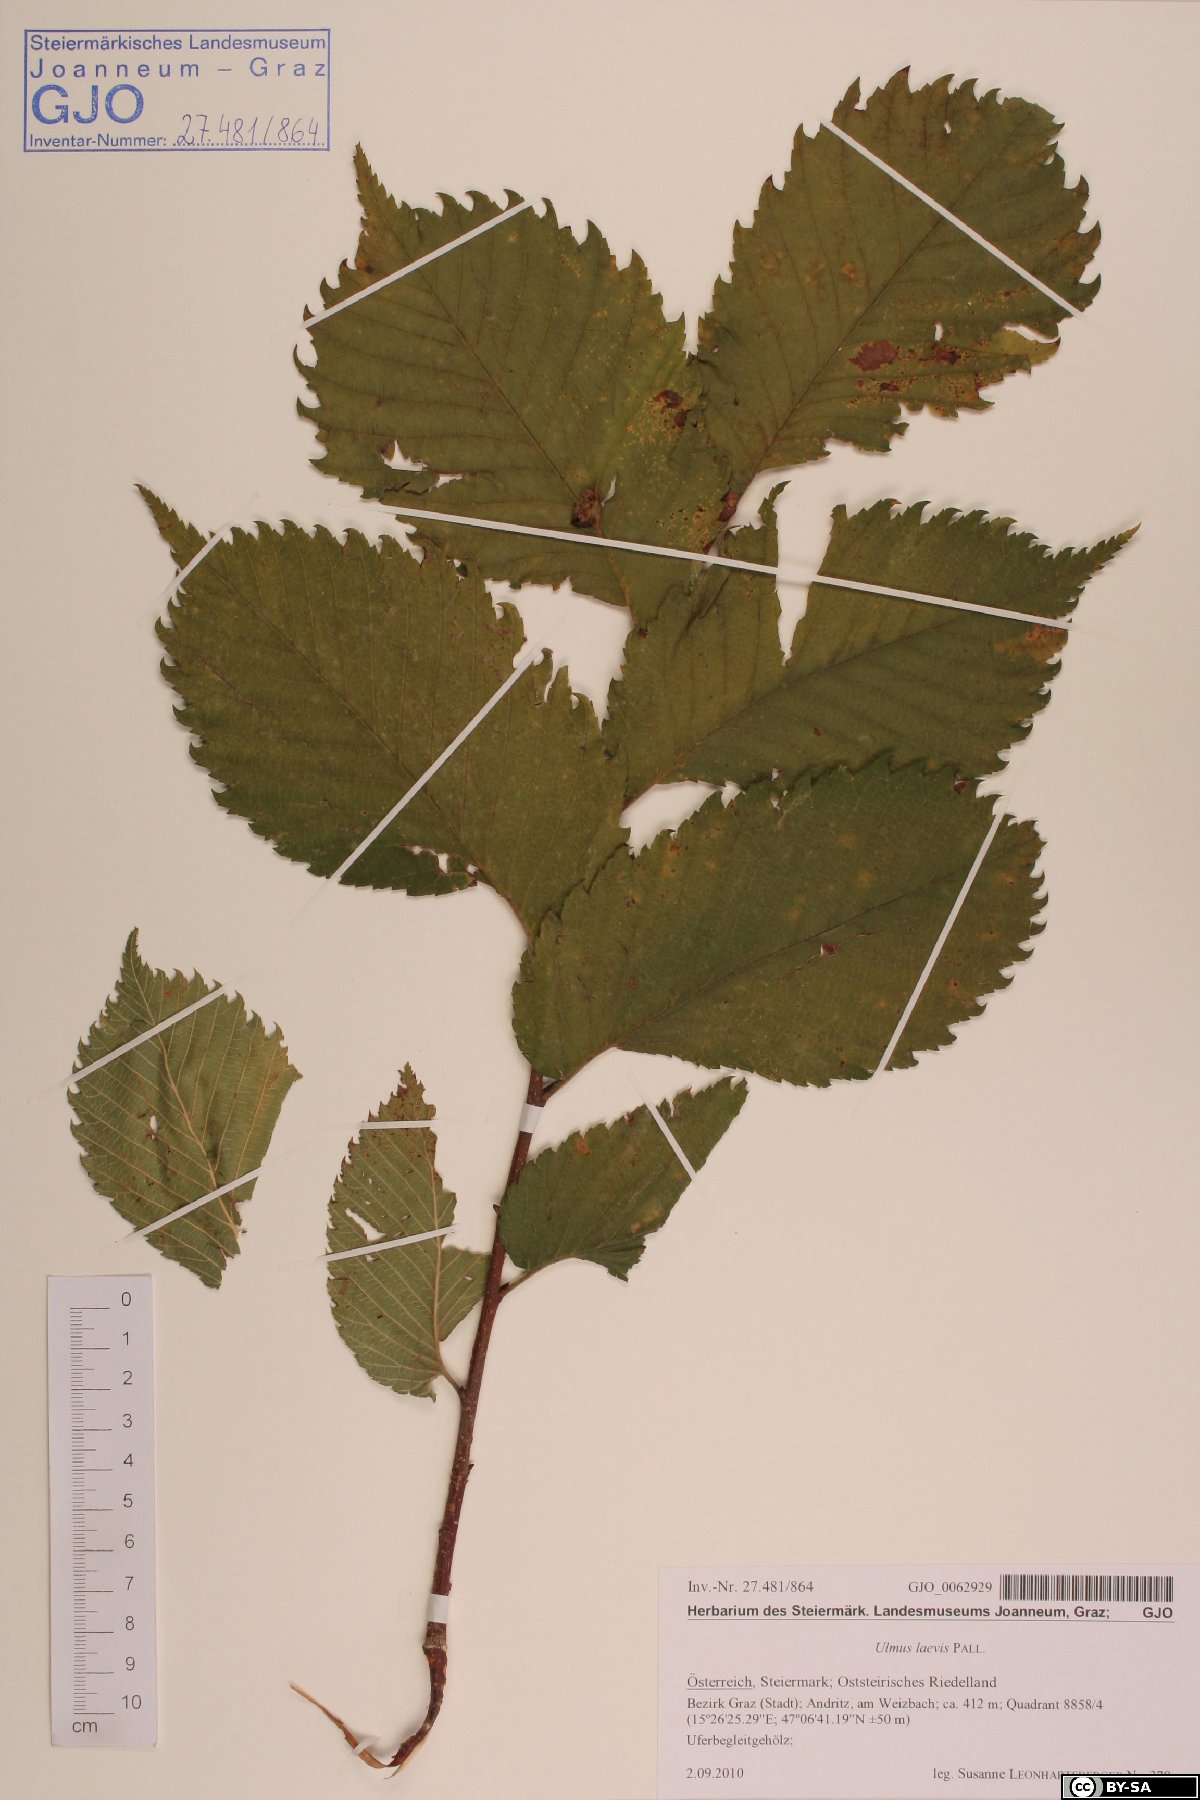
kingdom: Plantae
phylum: Tracheophyta
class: Magnoliopsida
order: Rosales
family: Ulmaceae
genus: Ulmus
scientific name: Ulmus laevis
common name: European white-elm
